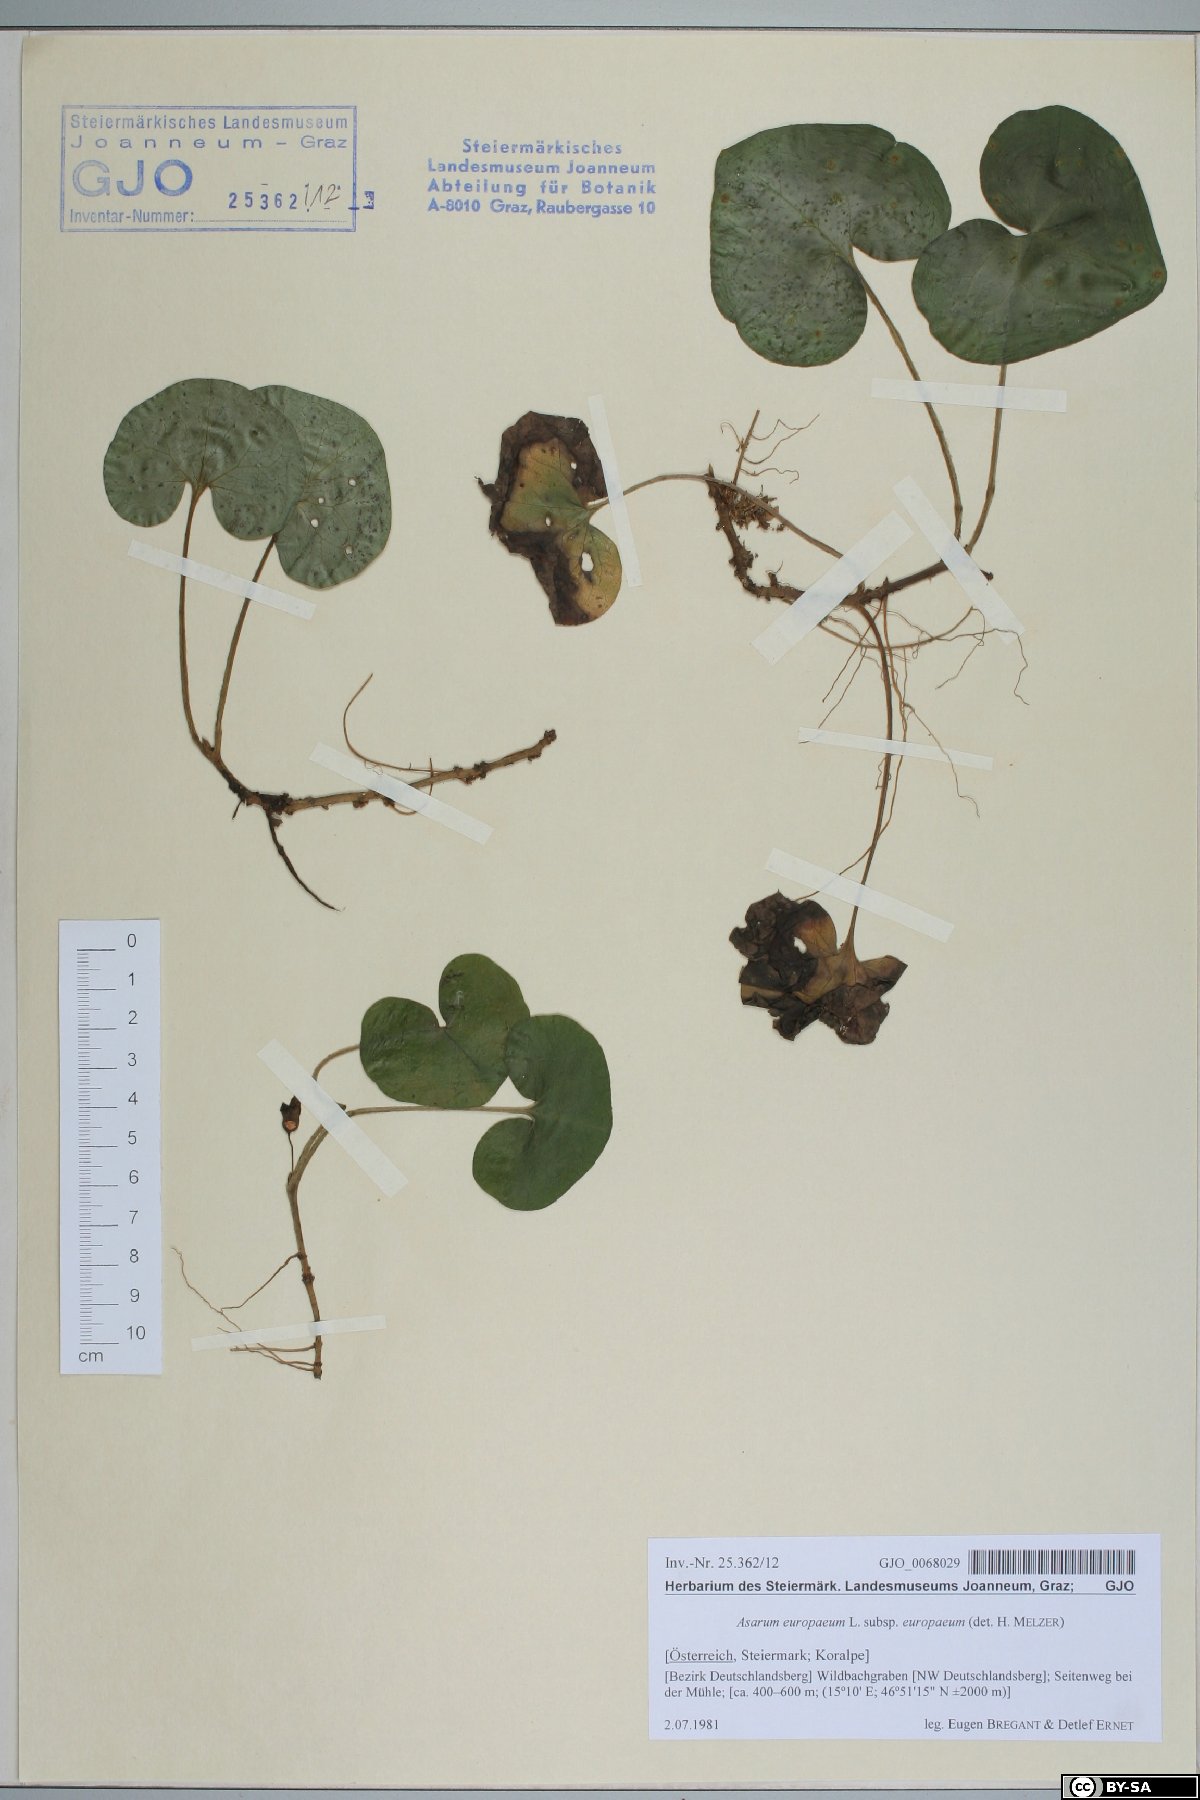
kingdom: Plantae
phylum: Tracheophyta
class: Magnoliopsida
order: Piperales
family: Aristolochiaceae
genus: Asarum
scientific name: Asarum europaeum
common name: Asarabacca
